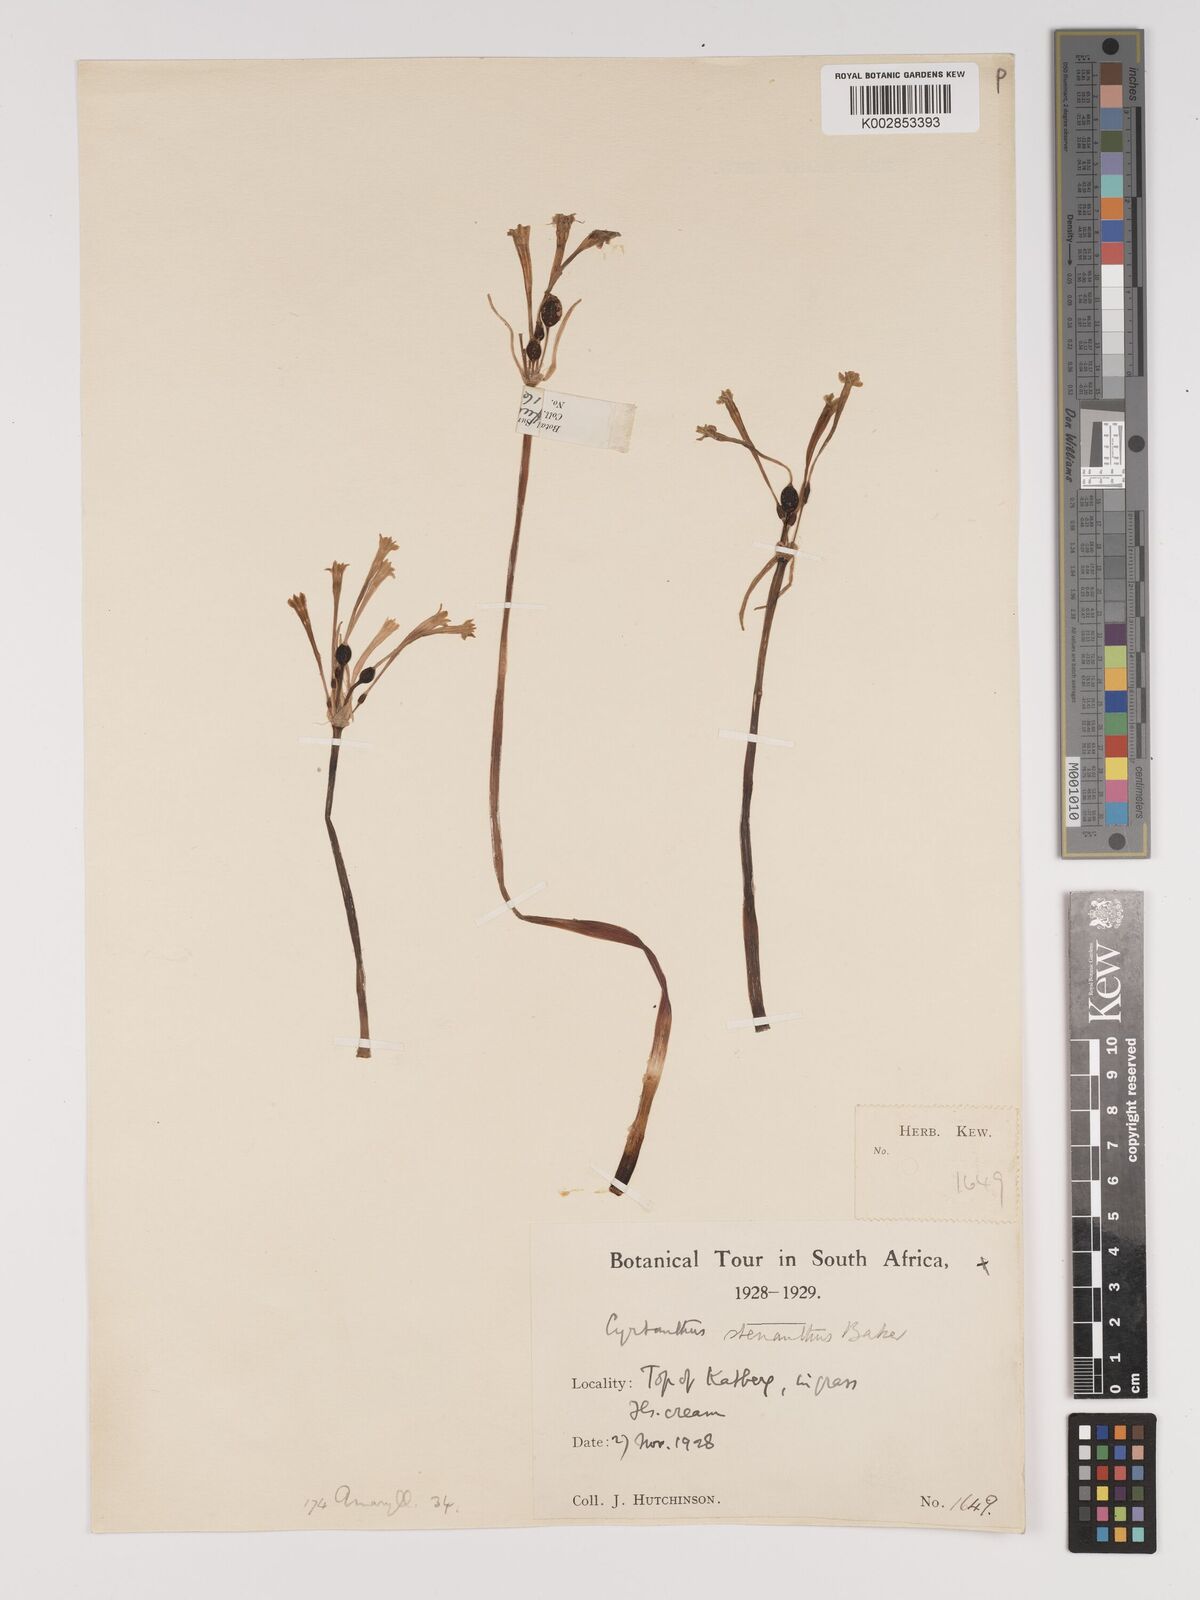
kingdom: Plantae
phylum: Tracheophyta
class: Liliopsida
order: Asparagales
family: Amaryllidaceae
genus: Cyrtanthus
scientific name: Cyrtanthus stenanthus
